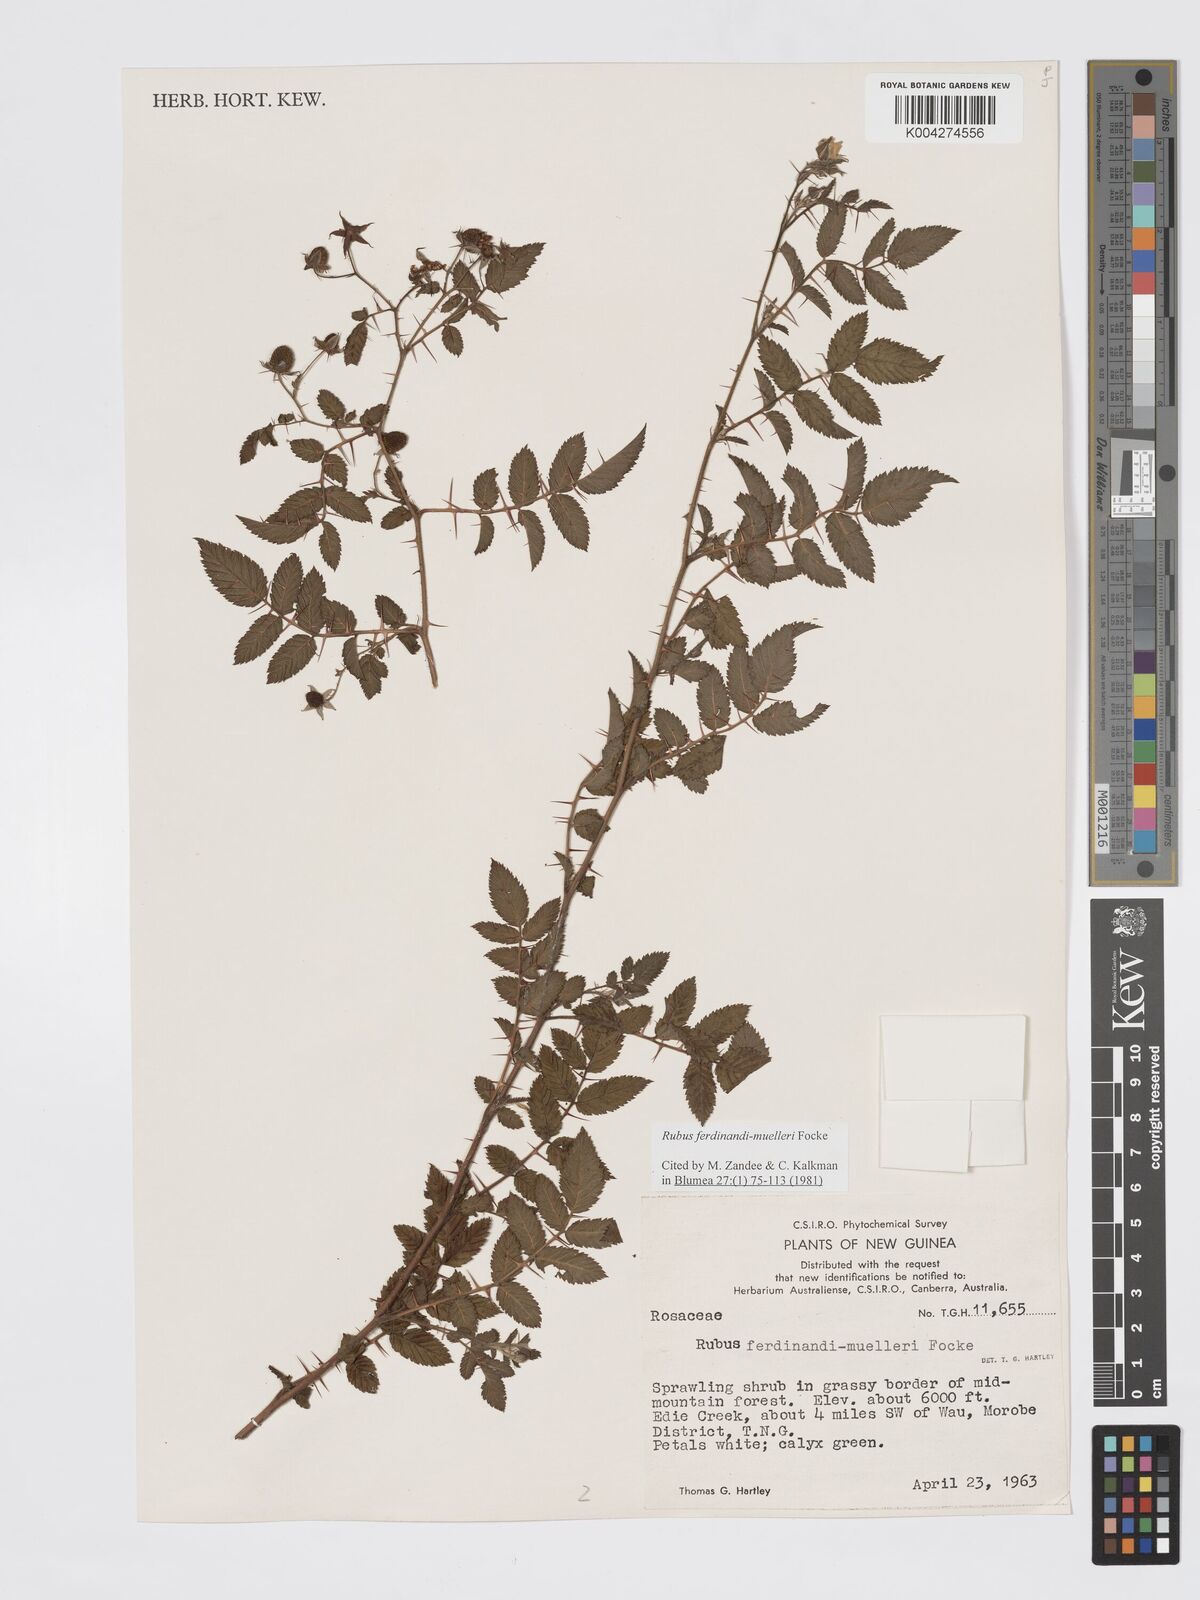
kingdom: Plantae
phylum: Tracheophyta
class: Magnoliopsida
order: Rosales
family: Rosaceae
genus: Rubus
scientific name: Rubus ferdinandimuelleri
